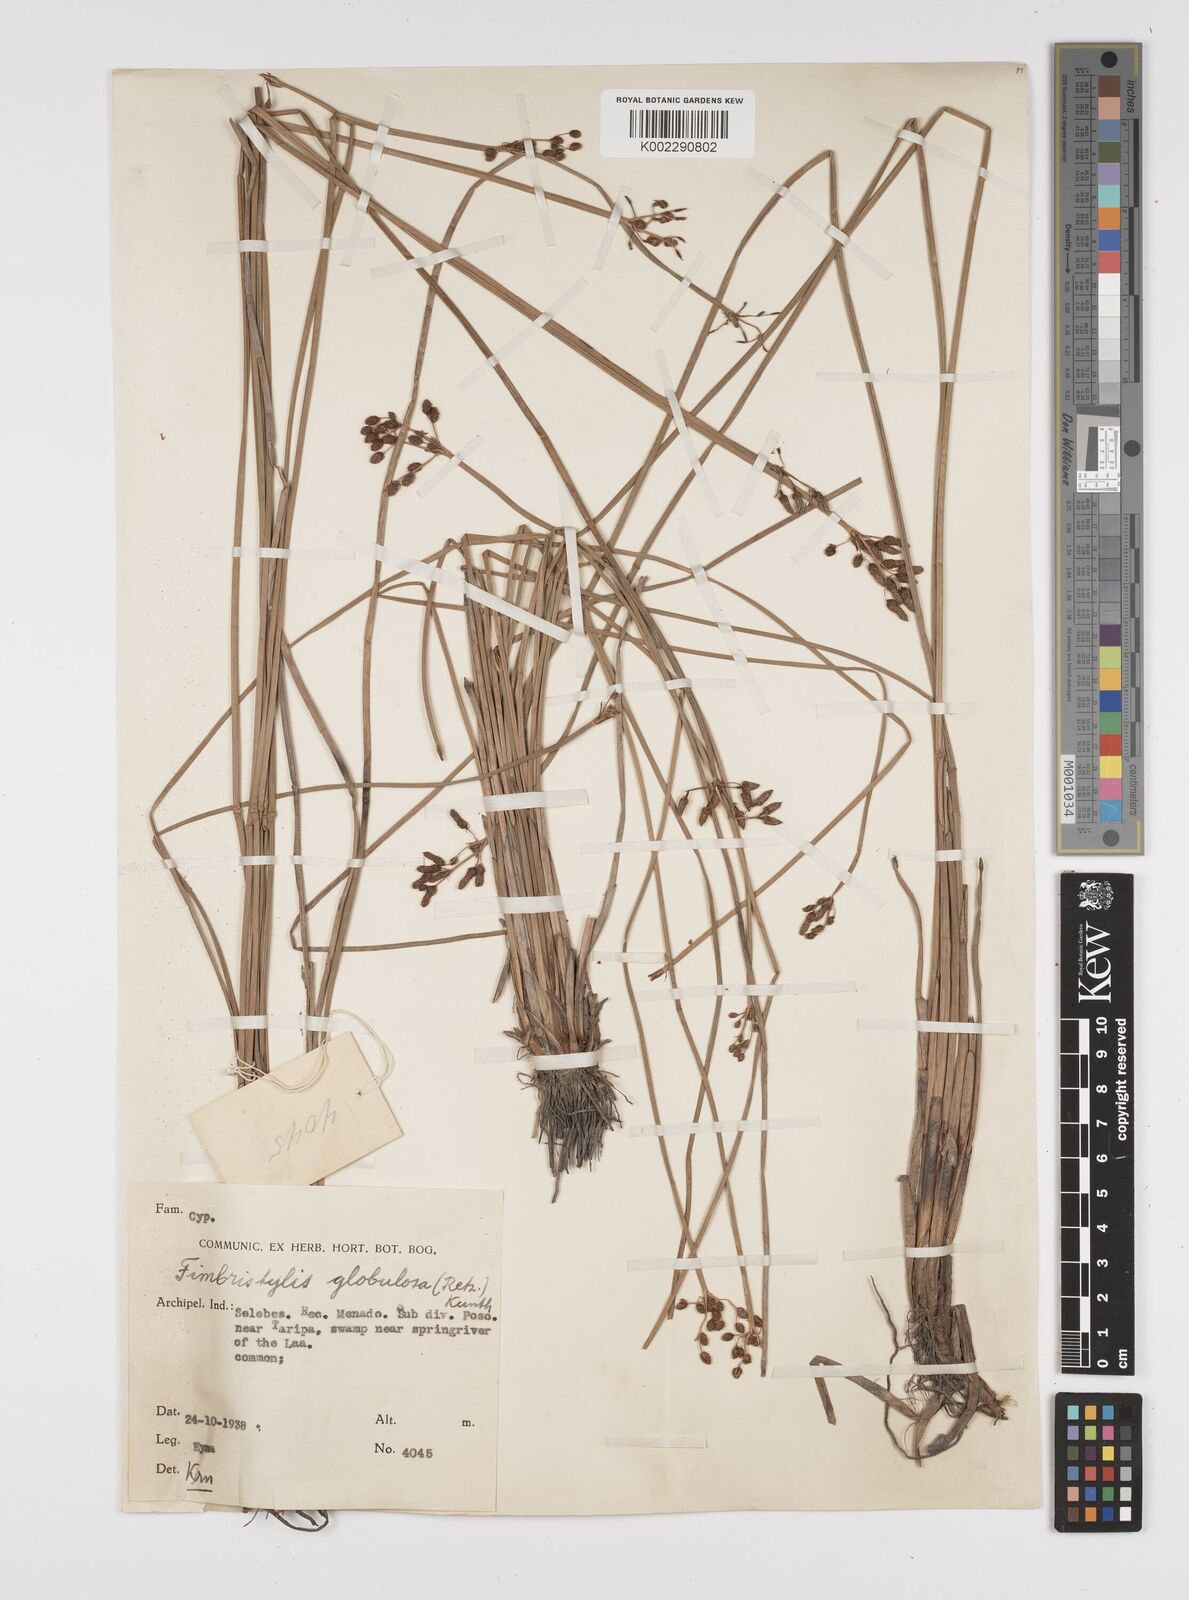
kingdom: Plantae
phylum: Tracheophyta
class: Liliopsida
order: Poales
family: Cyperaceae
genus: Fimbristylis
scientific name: Fimbristylis umbellaris
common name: Globular fimbristylis
